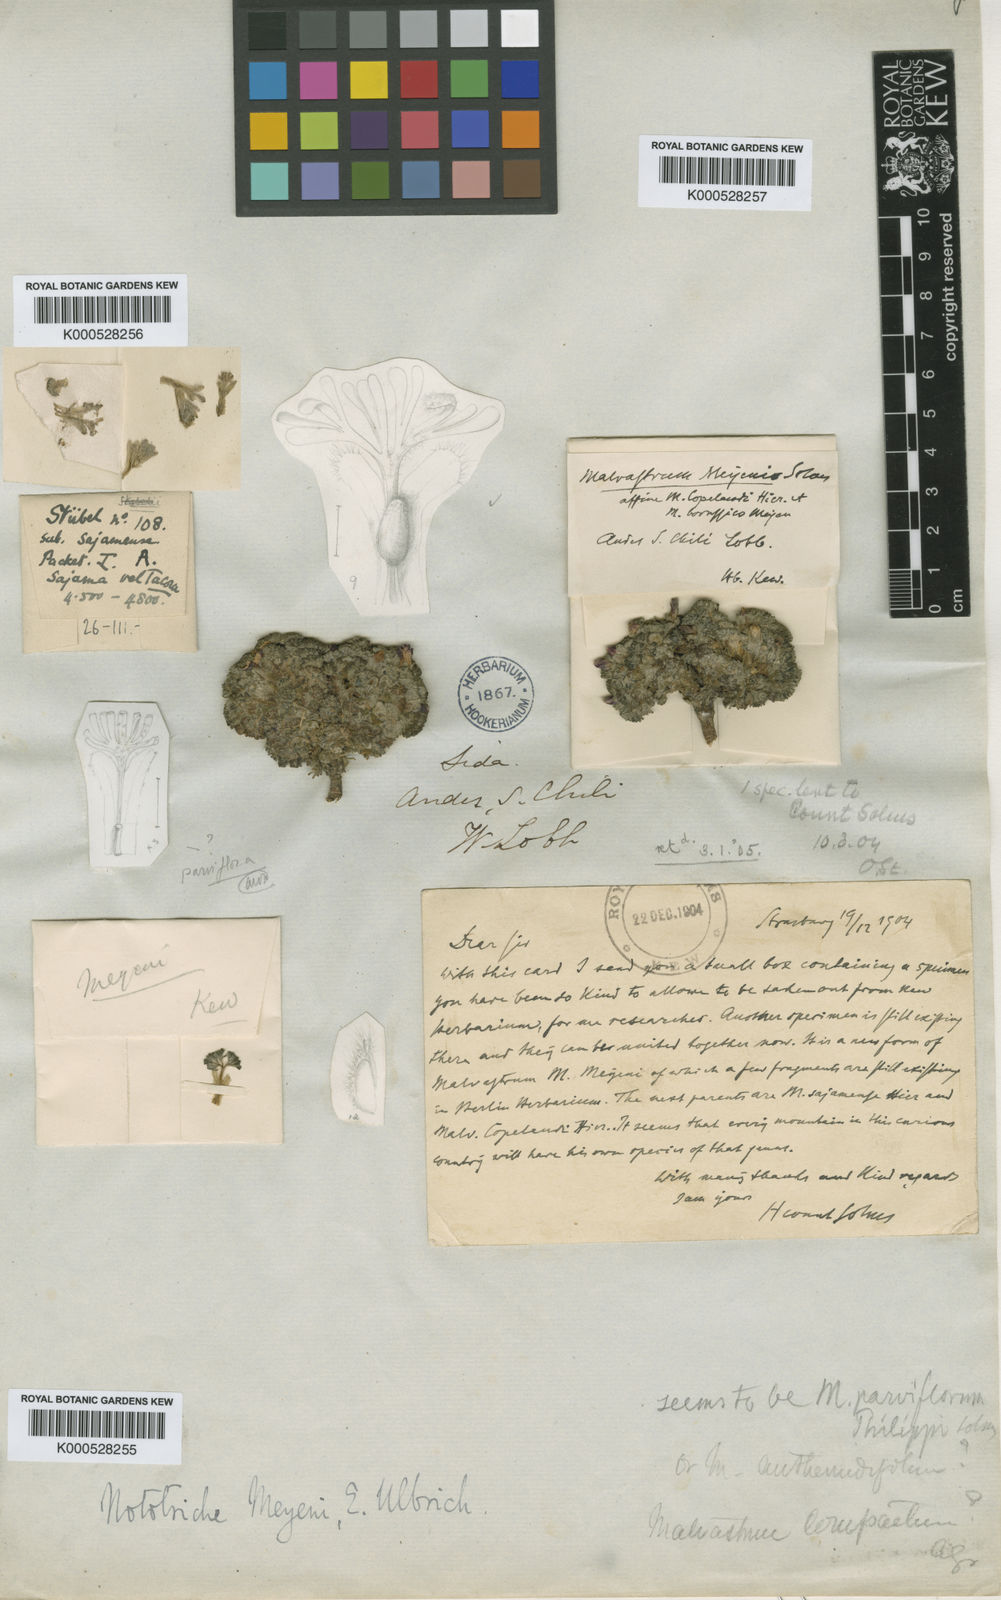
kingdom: Plantae
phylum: Tracheophyta
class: Magnoliopsida
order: Malvales
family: Malvaceae
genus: Nototriche
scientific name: Nototriche meyenii
